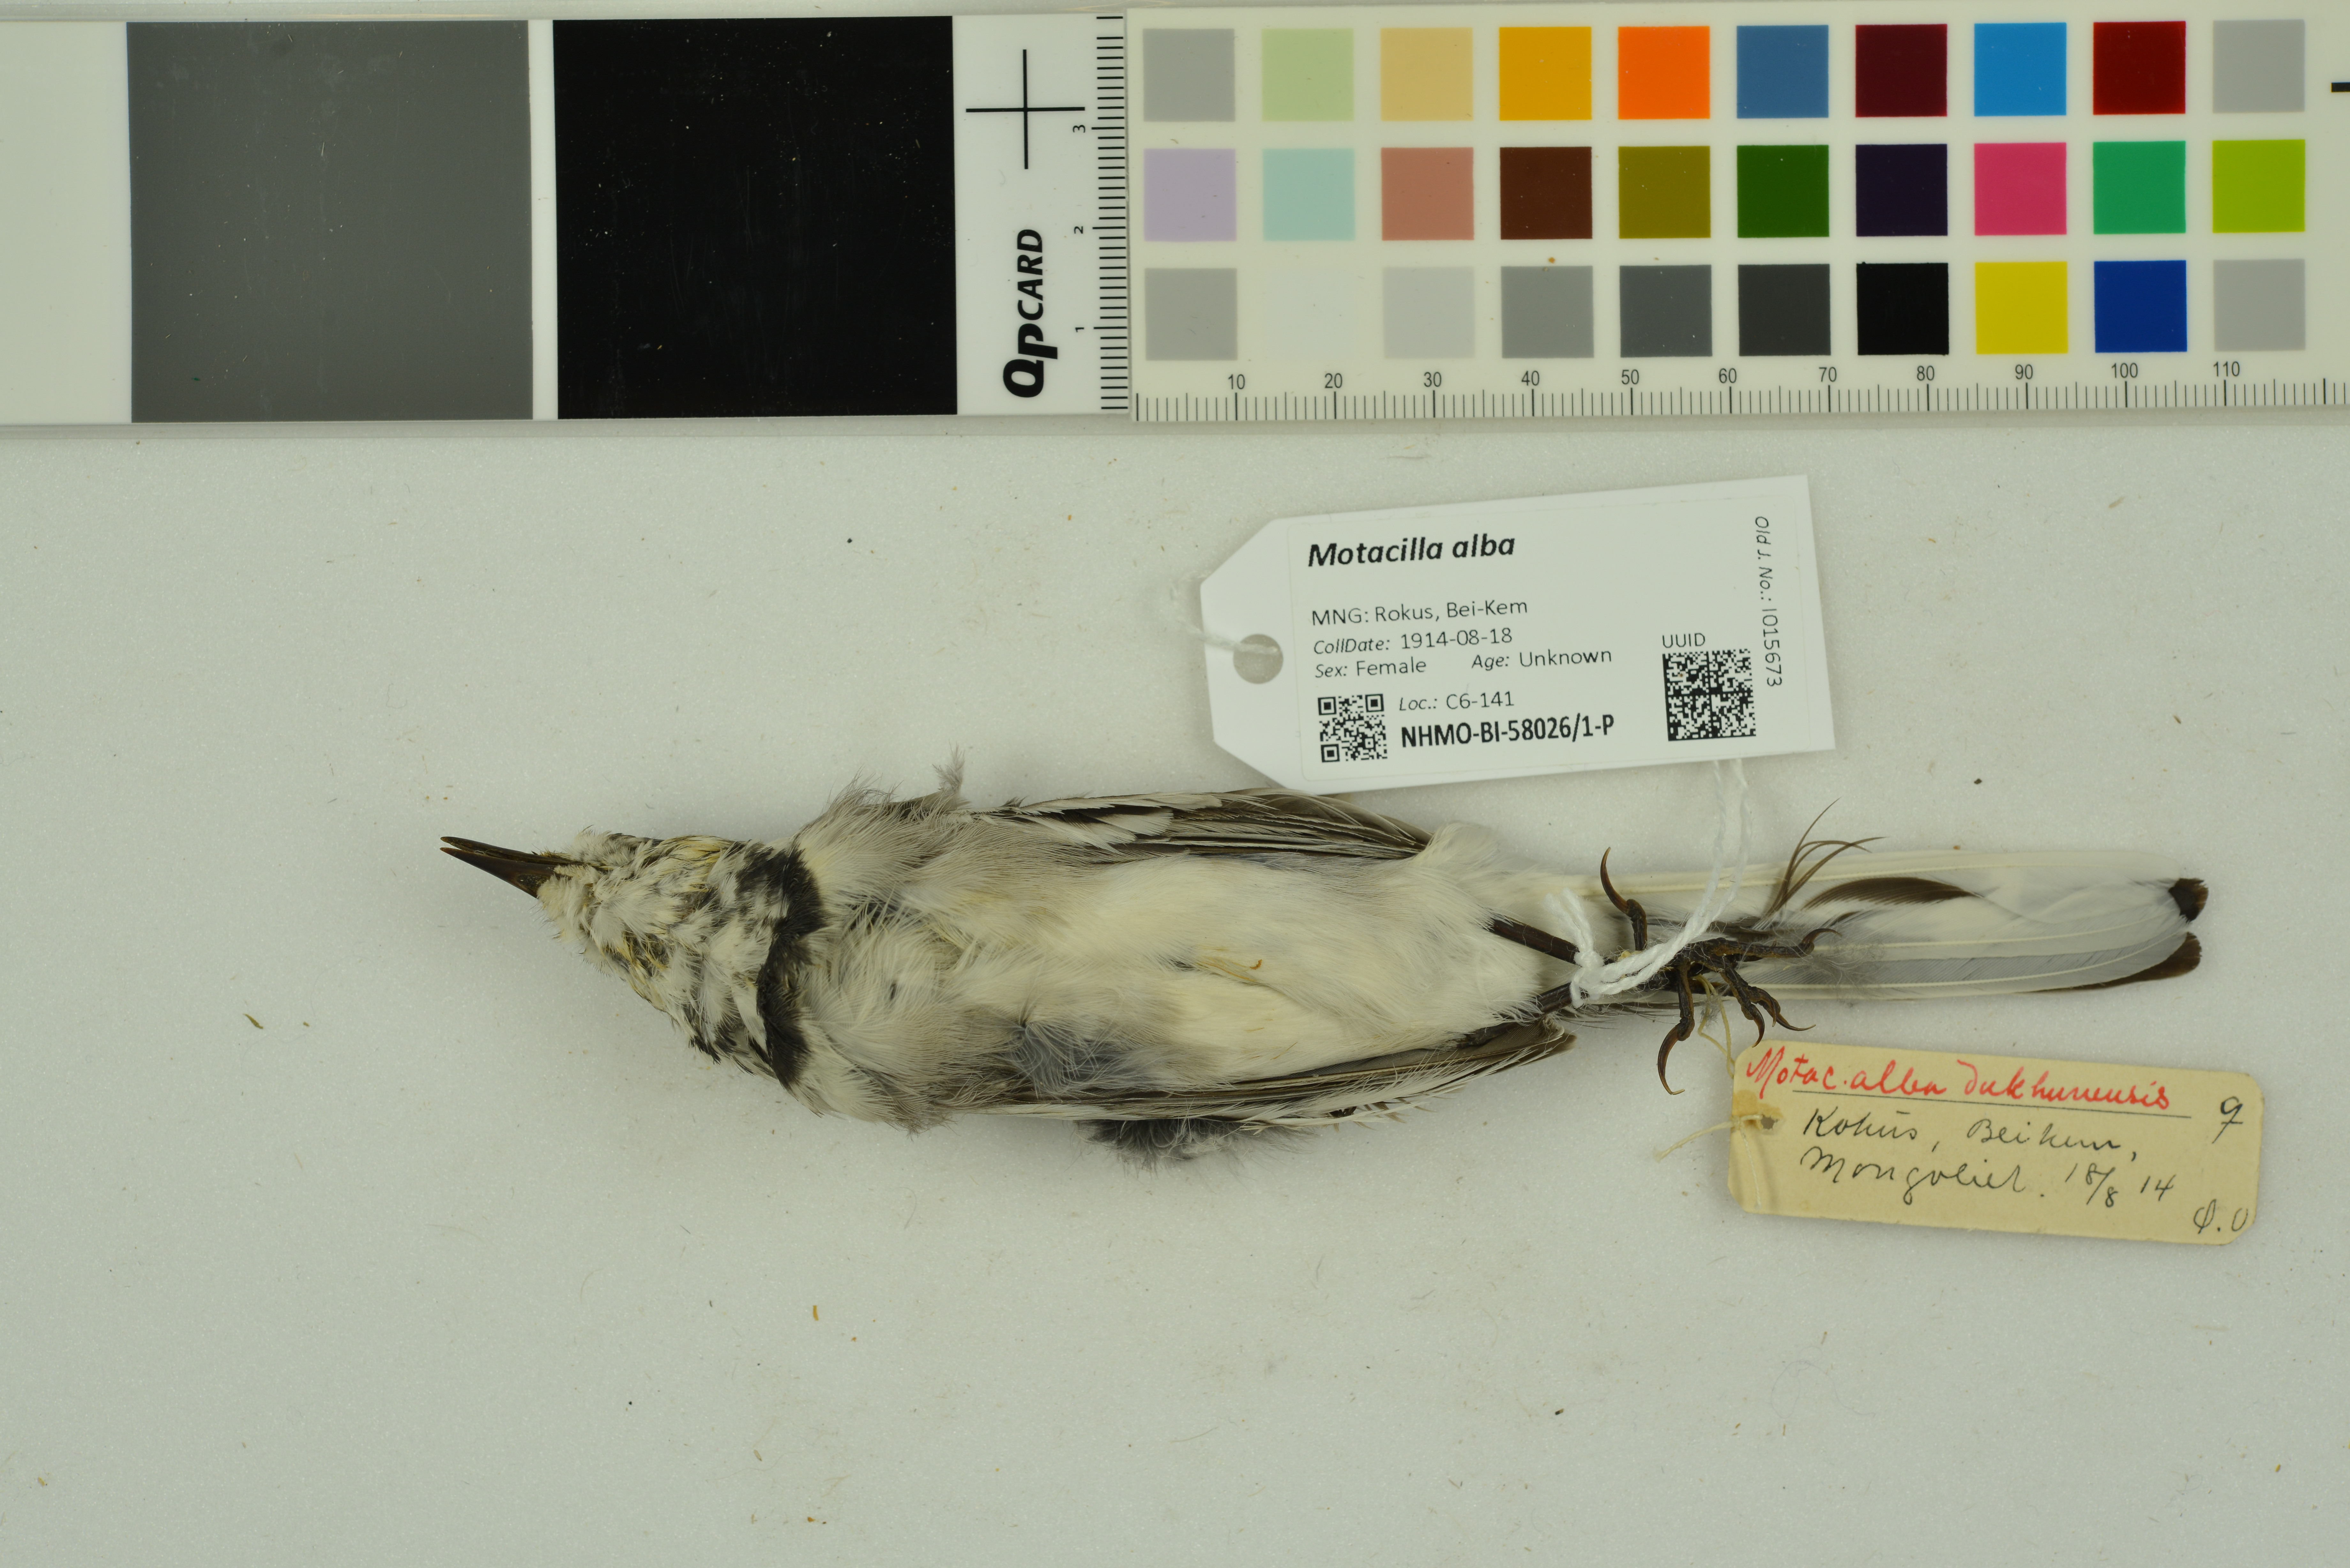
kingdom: Animalia
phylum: Chordata
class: Aves
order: Passeriformes
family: Motacillidae
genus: Motacilla
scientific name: Motacilla alba
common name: White wagtail
